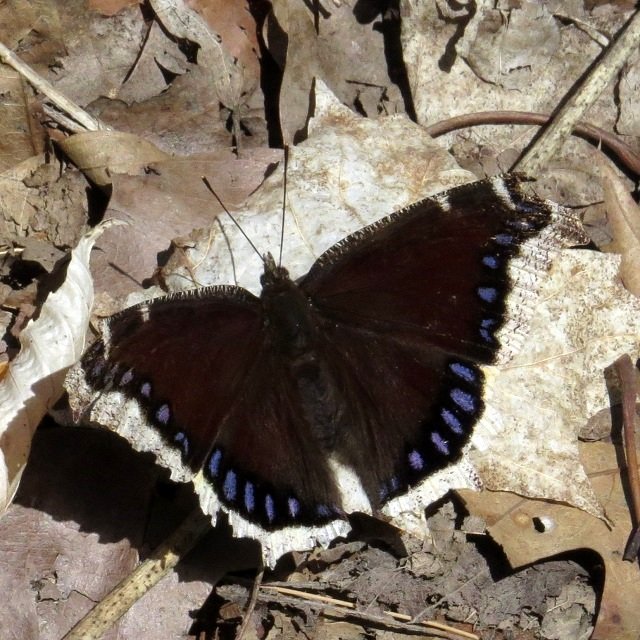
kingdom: Animalia
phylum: Arthropoda
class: Insecta
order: Lepidoptera
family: Nymphalidae
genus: Nymphalis
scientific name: Nymphalis antiopa
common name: Mourning Cloak
